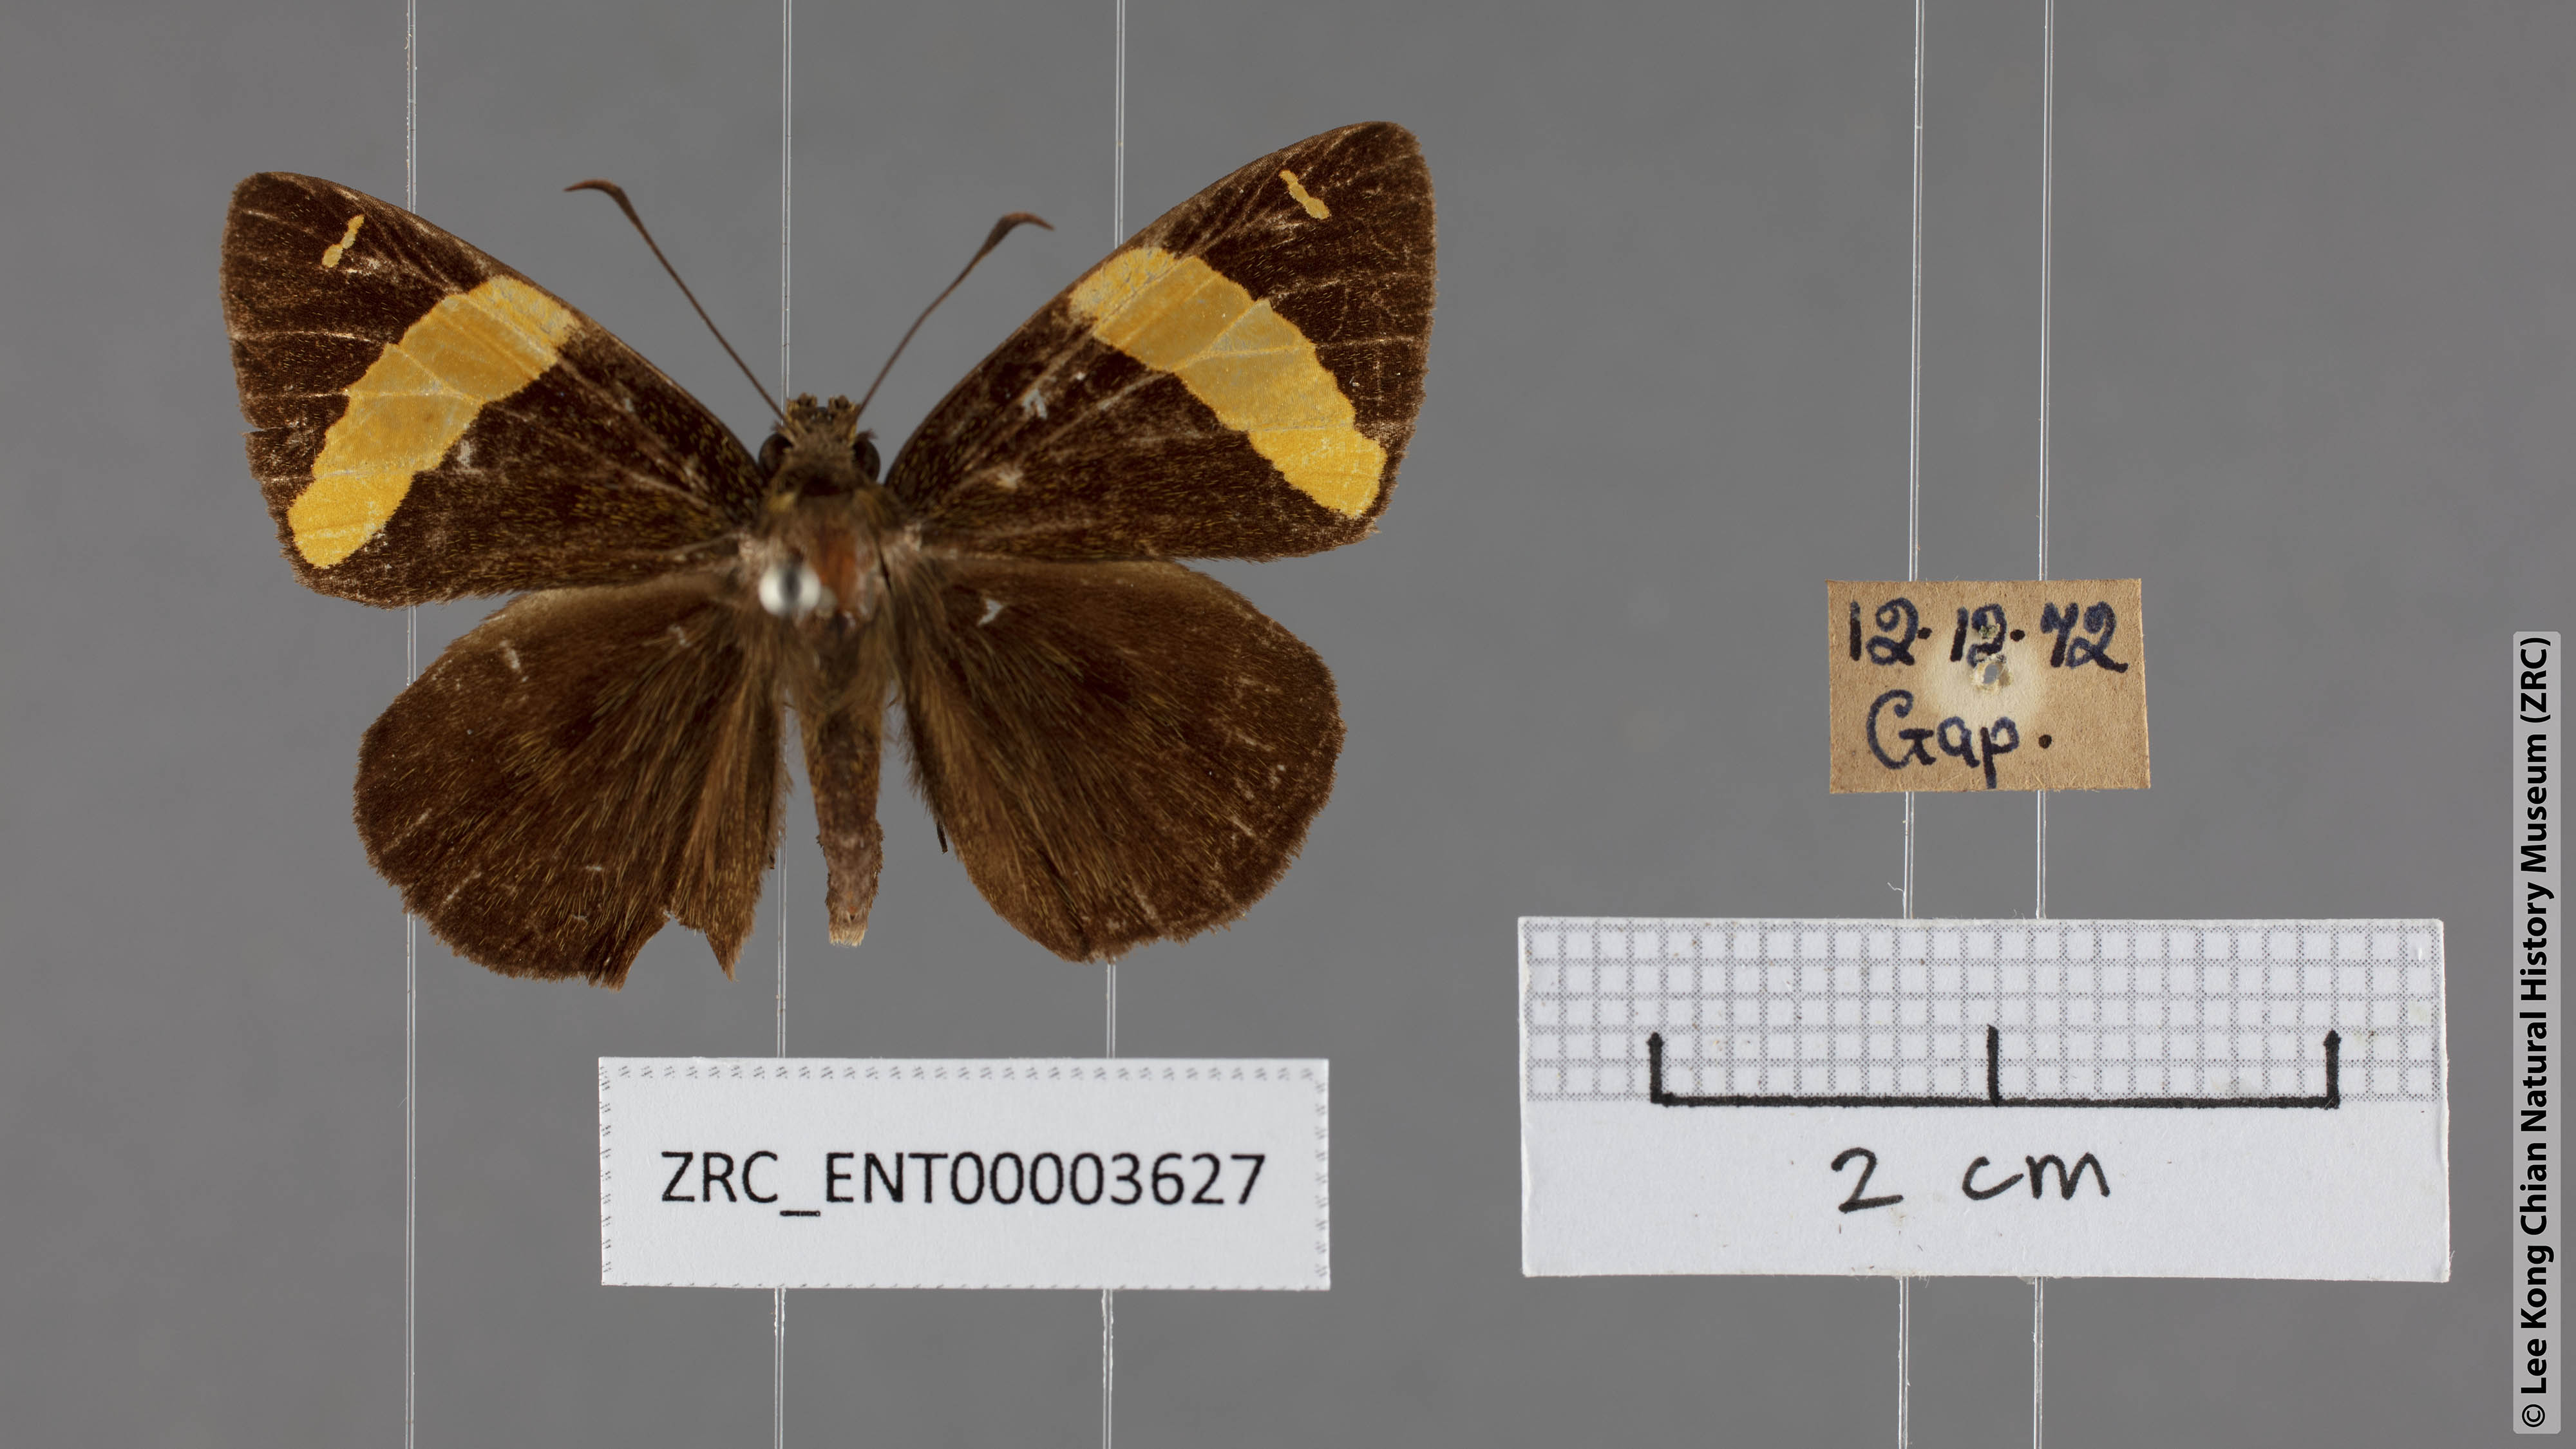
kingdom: Animalia
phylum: Arthropoda
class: Insecta
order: Lepidoptera
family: Hesperiidae
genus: Celaenorrhinus
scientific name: Celaenorrhinus aurivittata
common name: Dark yellow-banded flat
